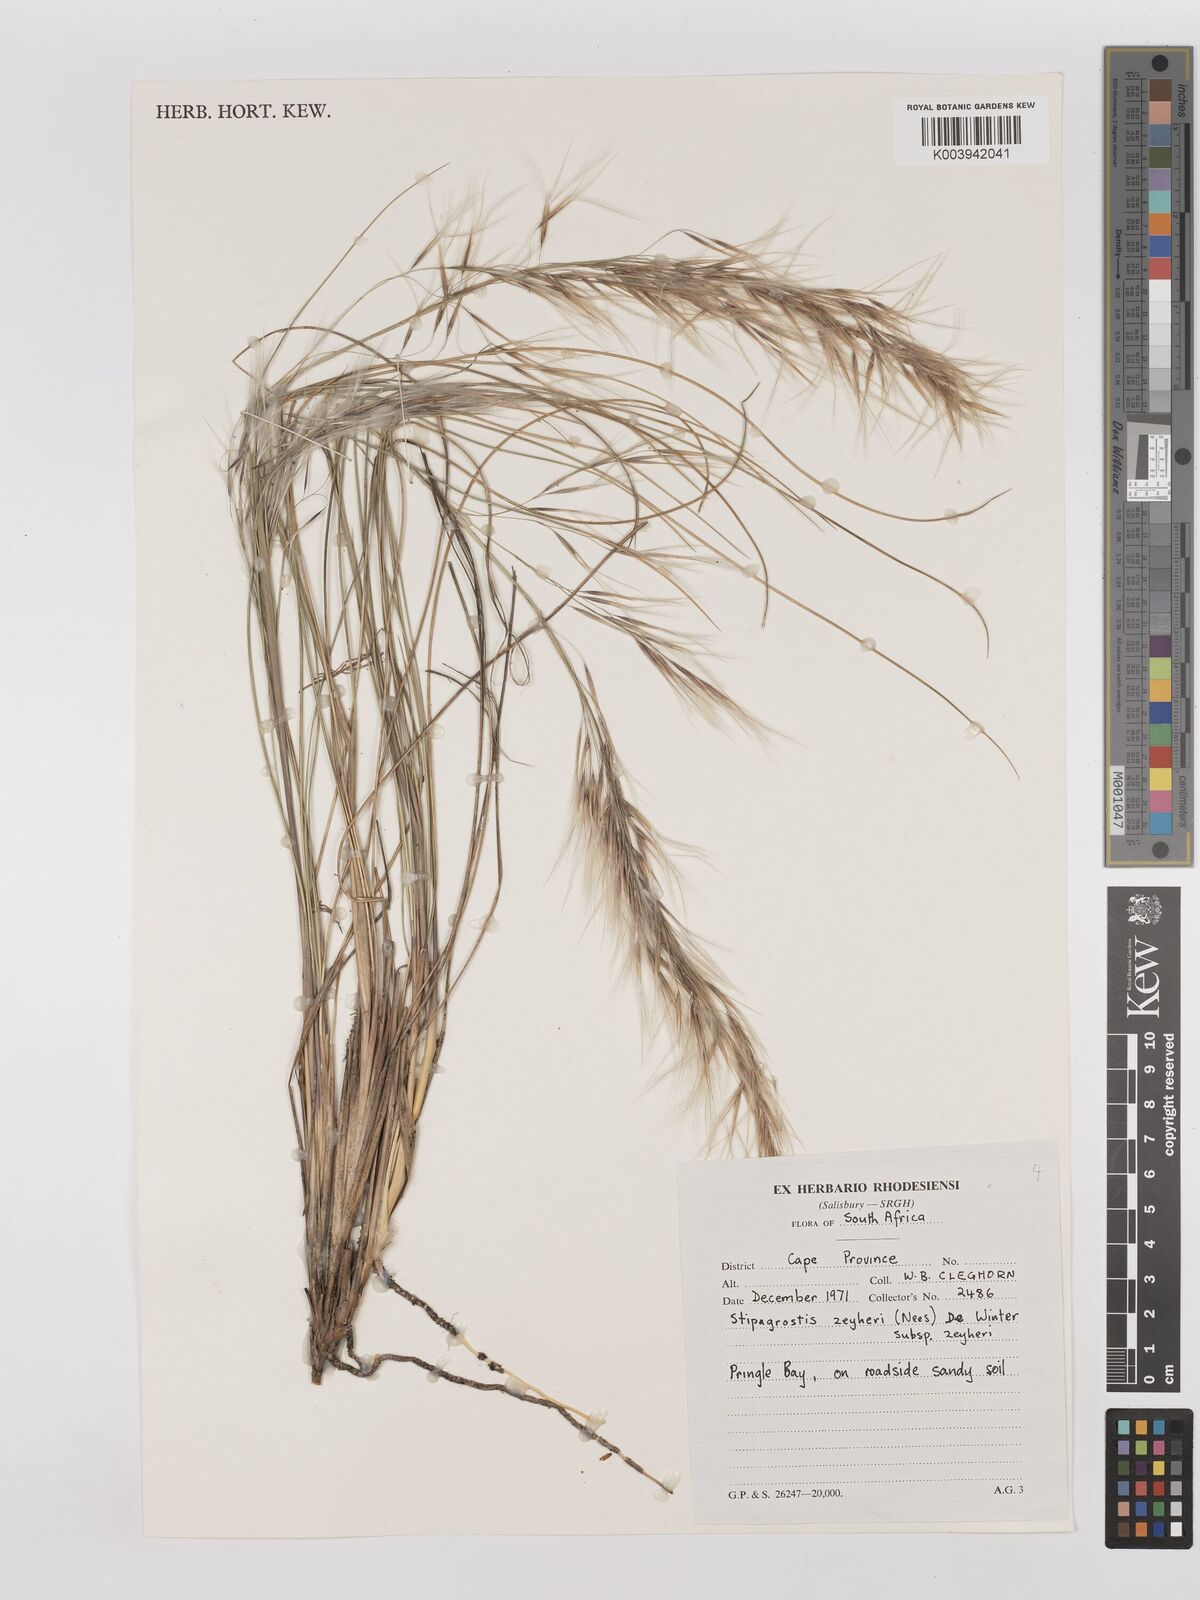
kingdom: Plantae
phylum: Tracheophyta
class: Liliopsida
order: Poales
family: Poaceae
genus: Stipagrostis
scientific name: Stipagrostis zeyheri
